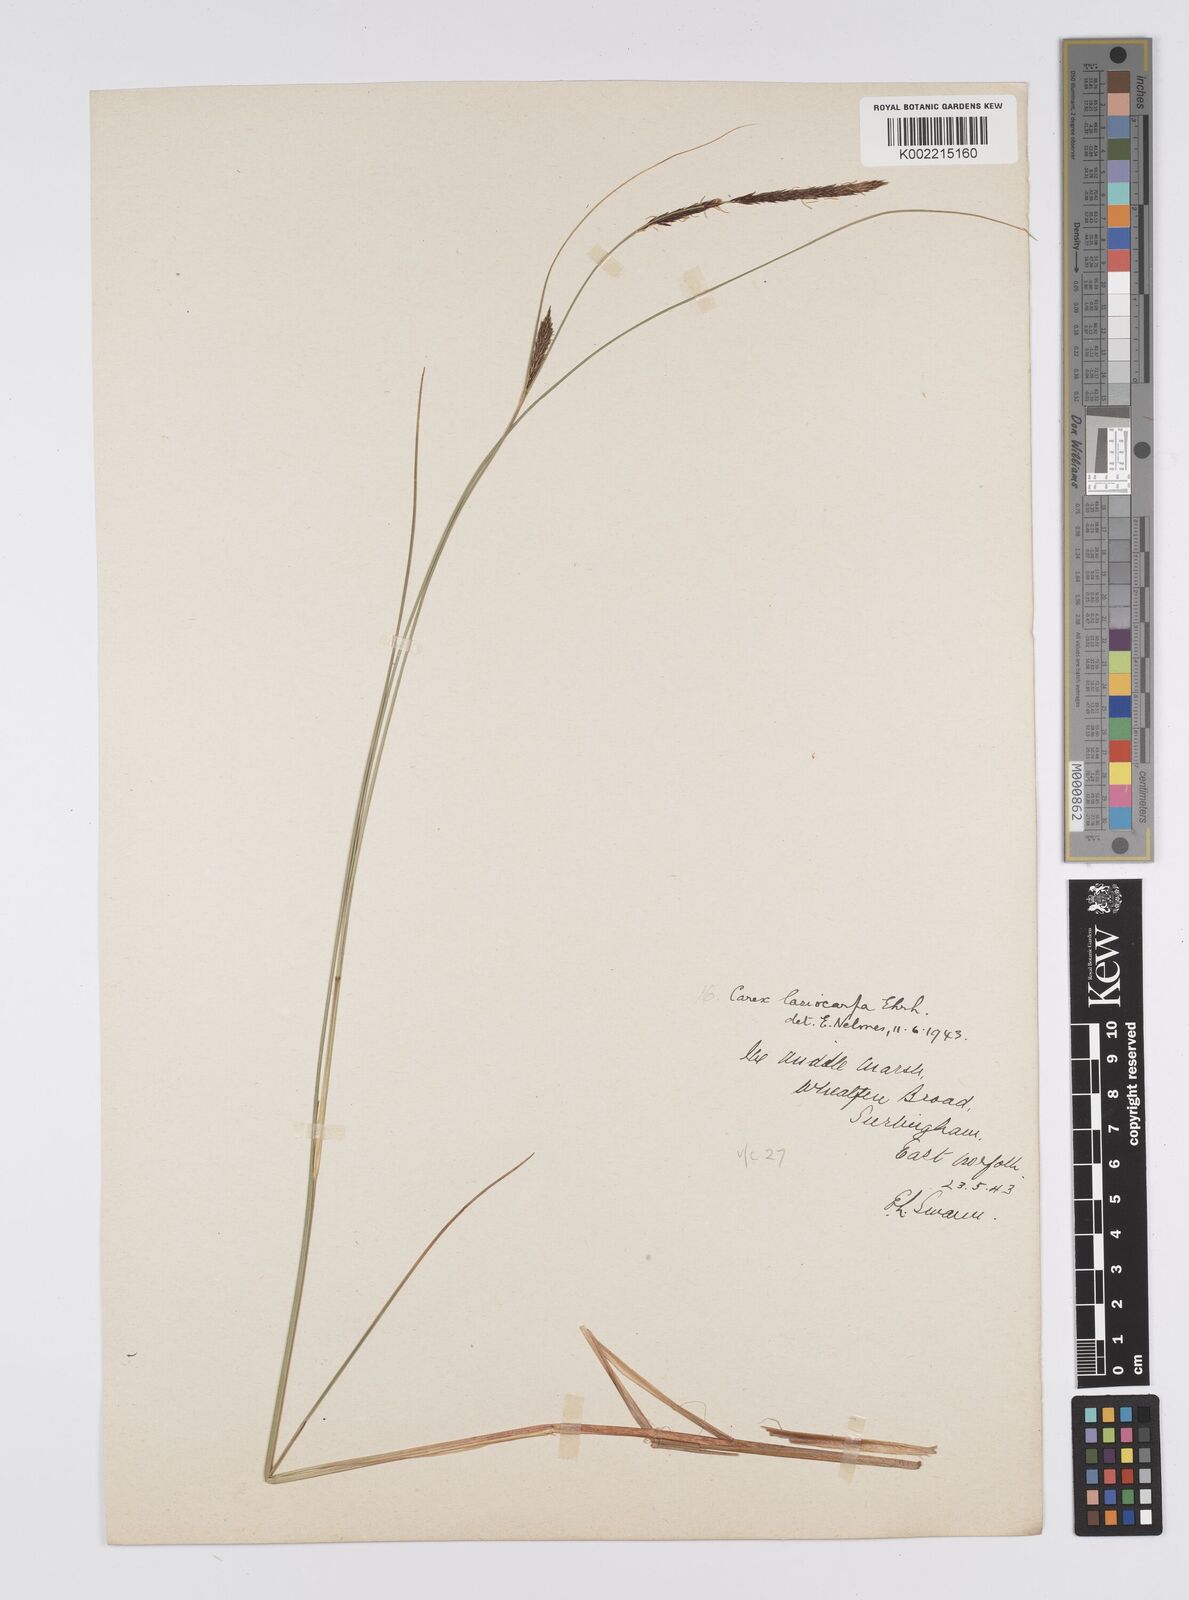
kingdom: Plantae
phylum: Tracheophyta
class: Liliopsida
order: Poales
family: Cyperaceae
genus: Carex
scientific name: Carex lasiocarpa
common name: Slender sedge
